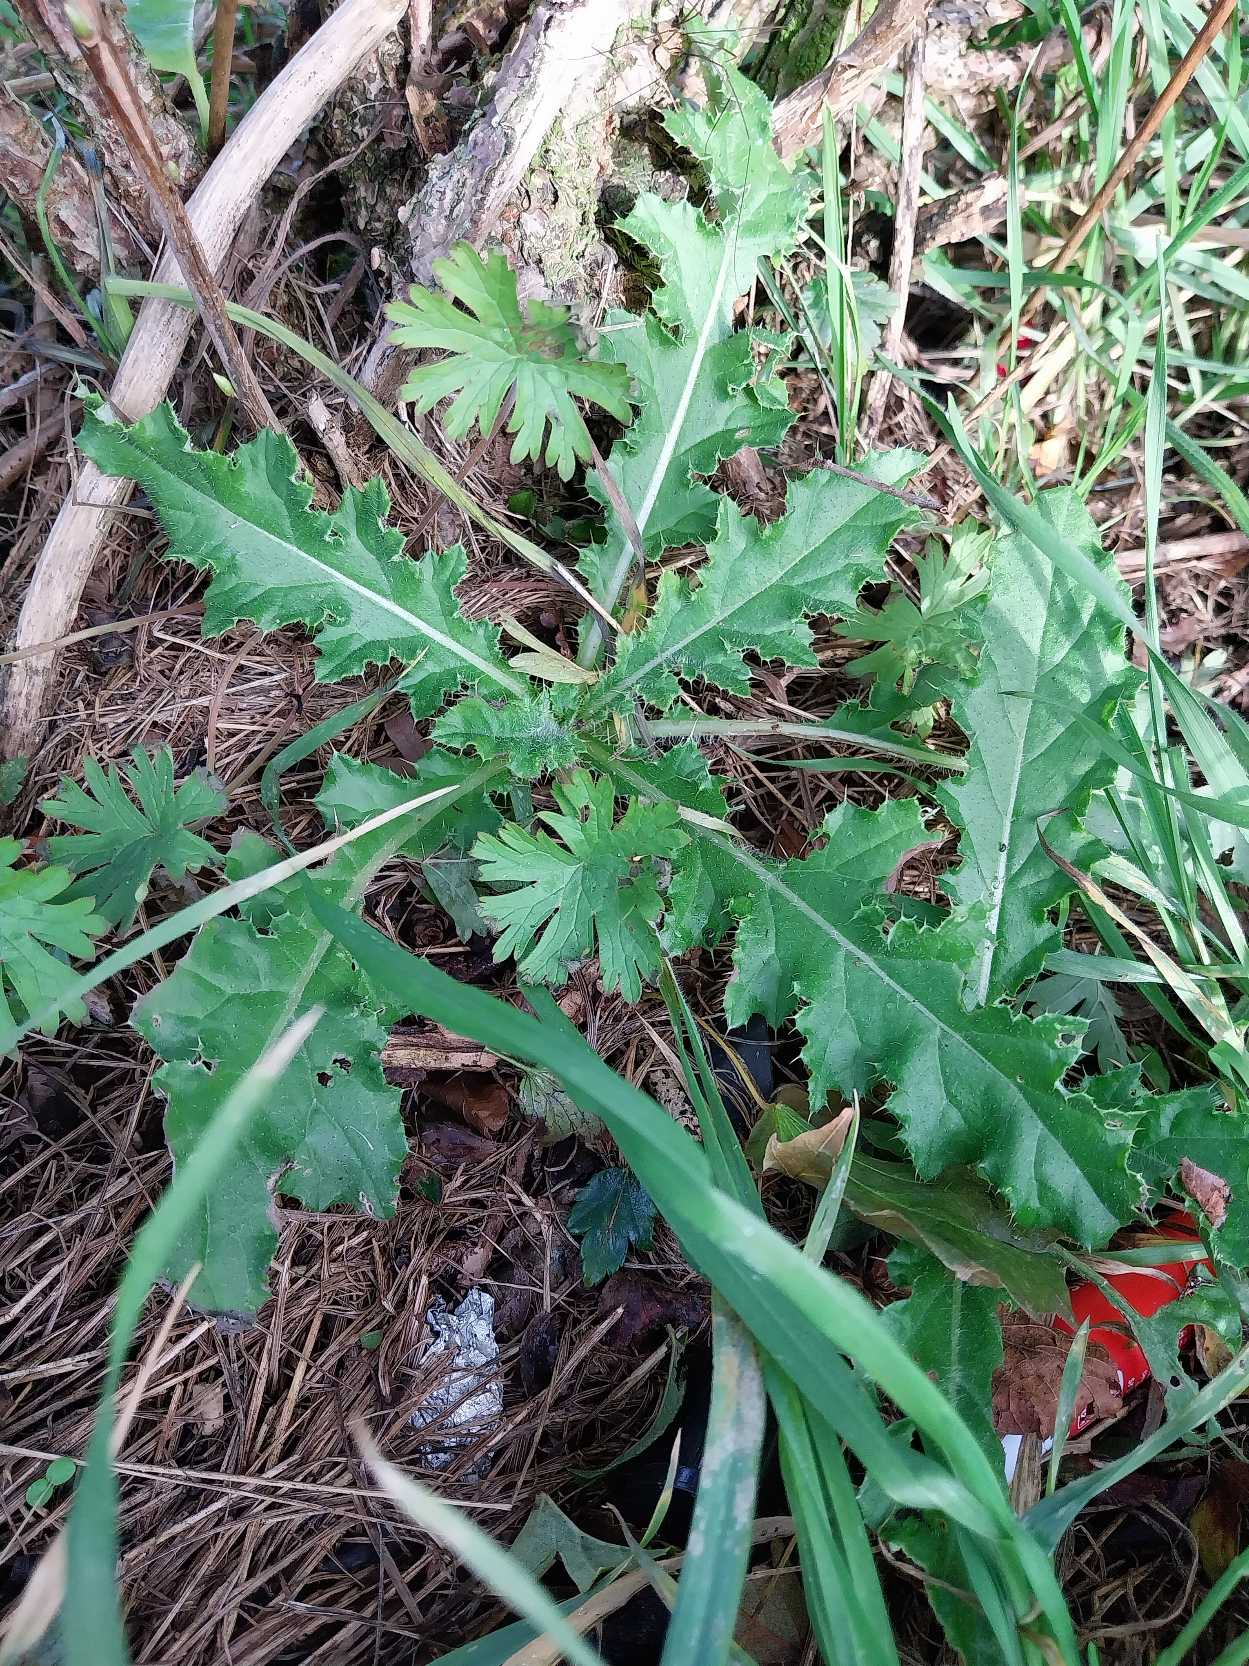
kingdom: Plantae
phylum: Tracheophyta
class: Magnoliopsida
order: Asterales
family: Asteraceae
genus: Cirsium
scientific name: Cirsium arvense
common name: Ager-tidsel
